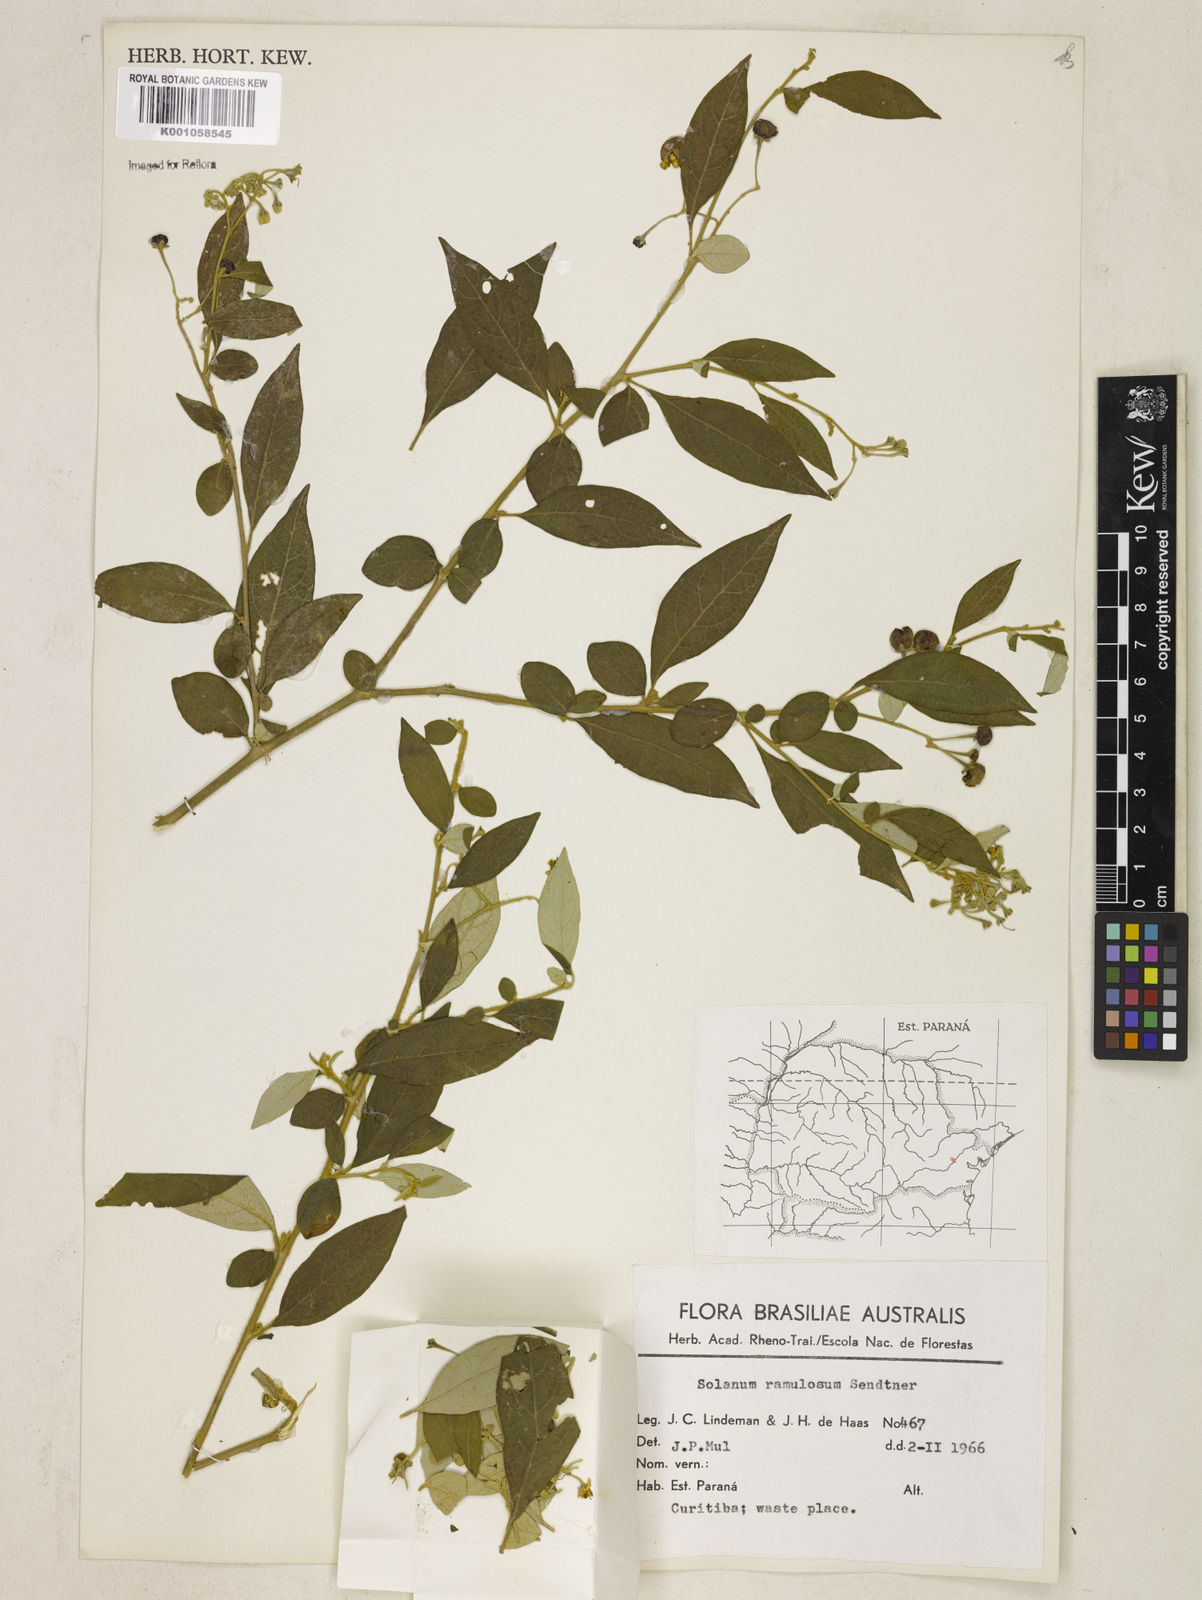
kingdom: Plantae
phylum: Tracheophyta
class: Magnoliopsida
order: Solanales
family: Solanaceae
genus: Solanum
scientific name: Solanum ramulosum
